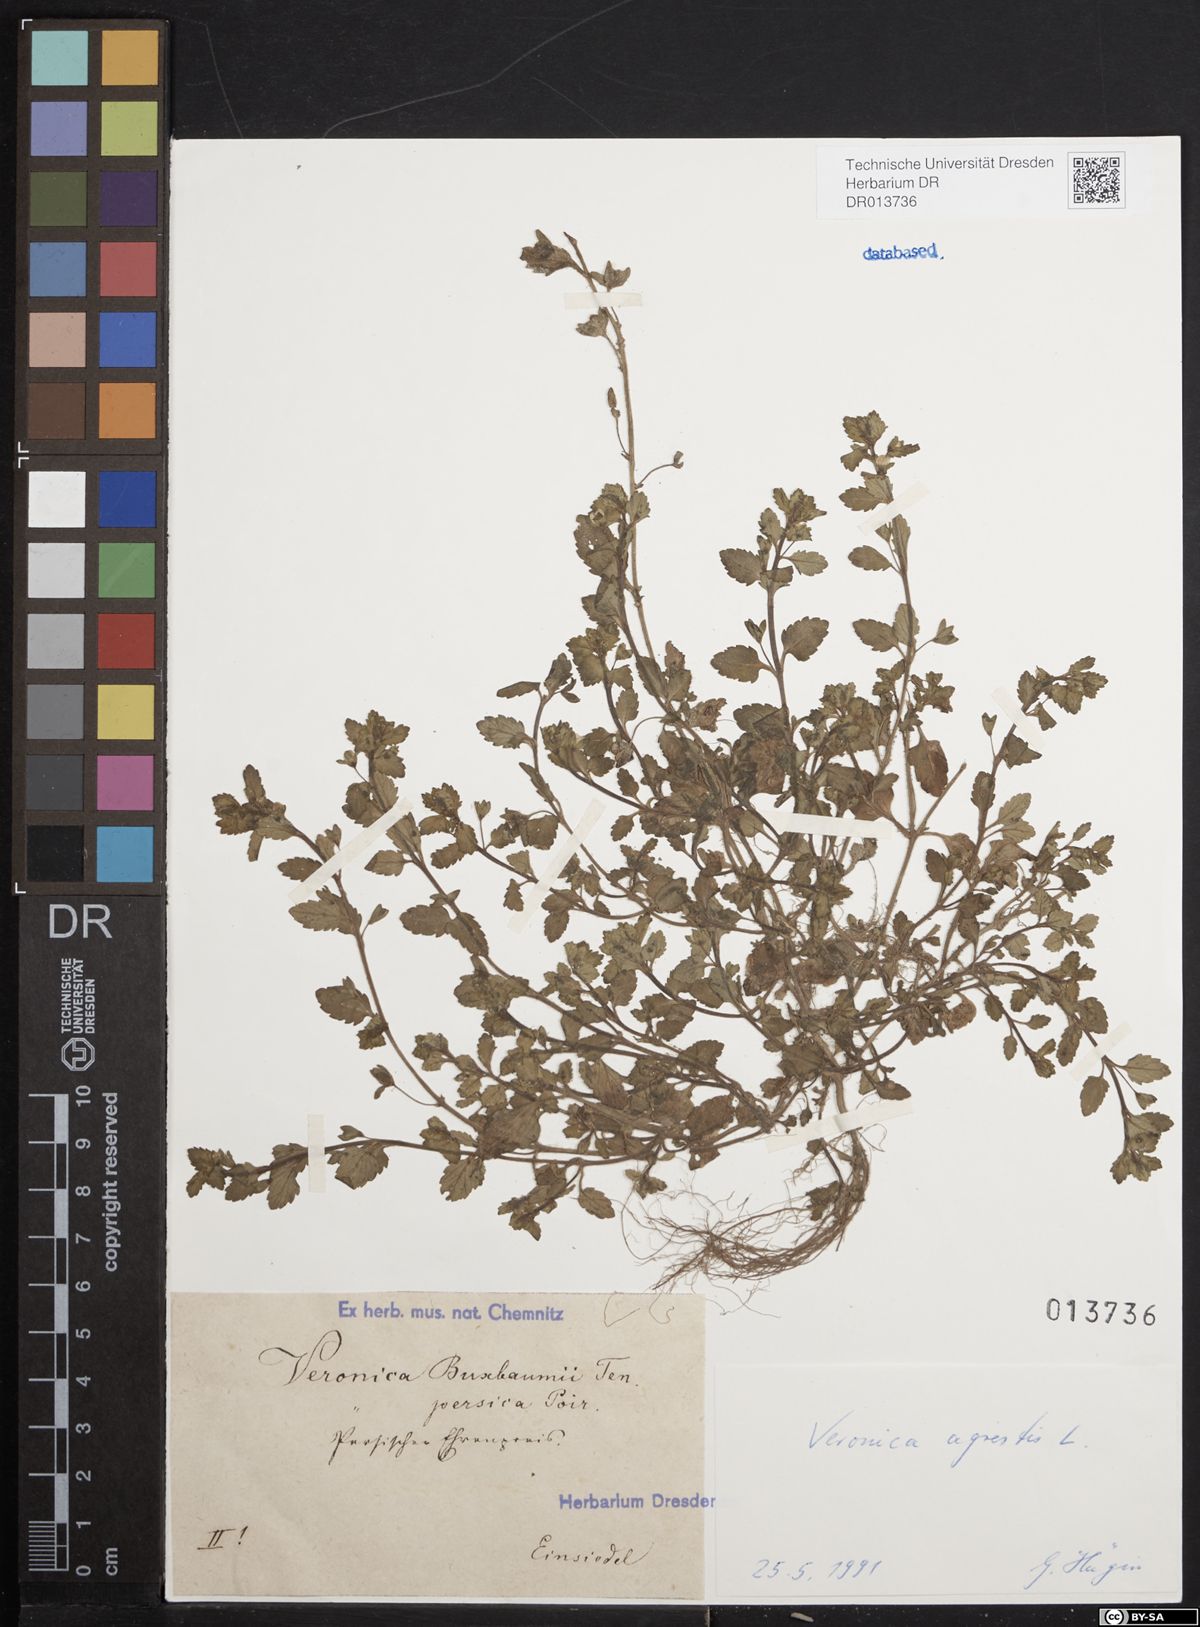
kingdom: Plantae
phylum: Tracheophyta
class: Magnoliopsida
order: Lamiales
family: Plantaginaceae
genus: Veronica
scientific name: Veronica agrestis
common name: Green field-speedwell
